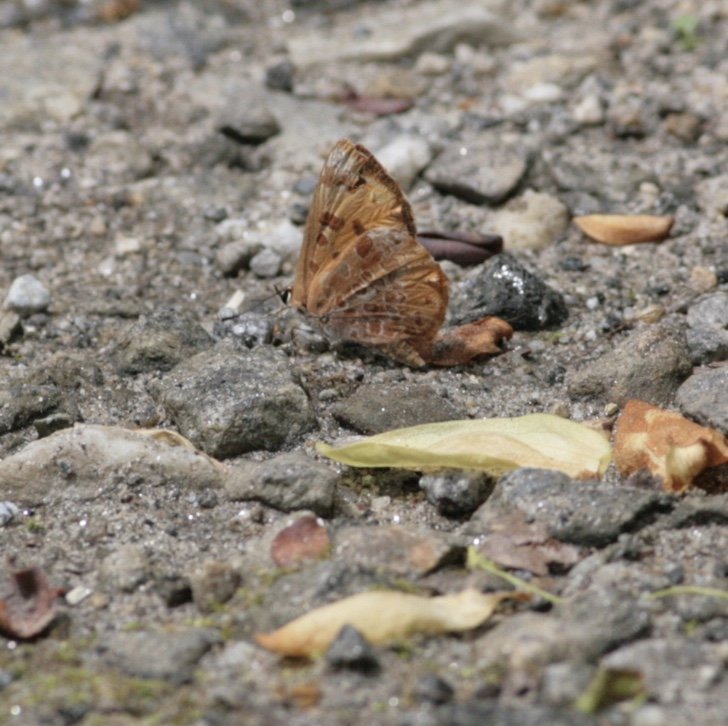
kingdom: Animalia
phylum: Arthropoda
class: Insecta
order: Lepidoptera
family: Lycaenidae
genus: Feniseca
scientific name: Feniseca tarquinius
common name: Harvester
